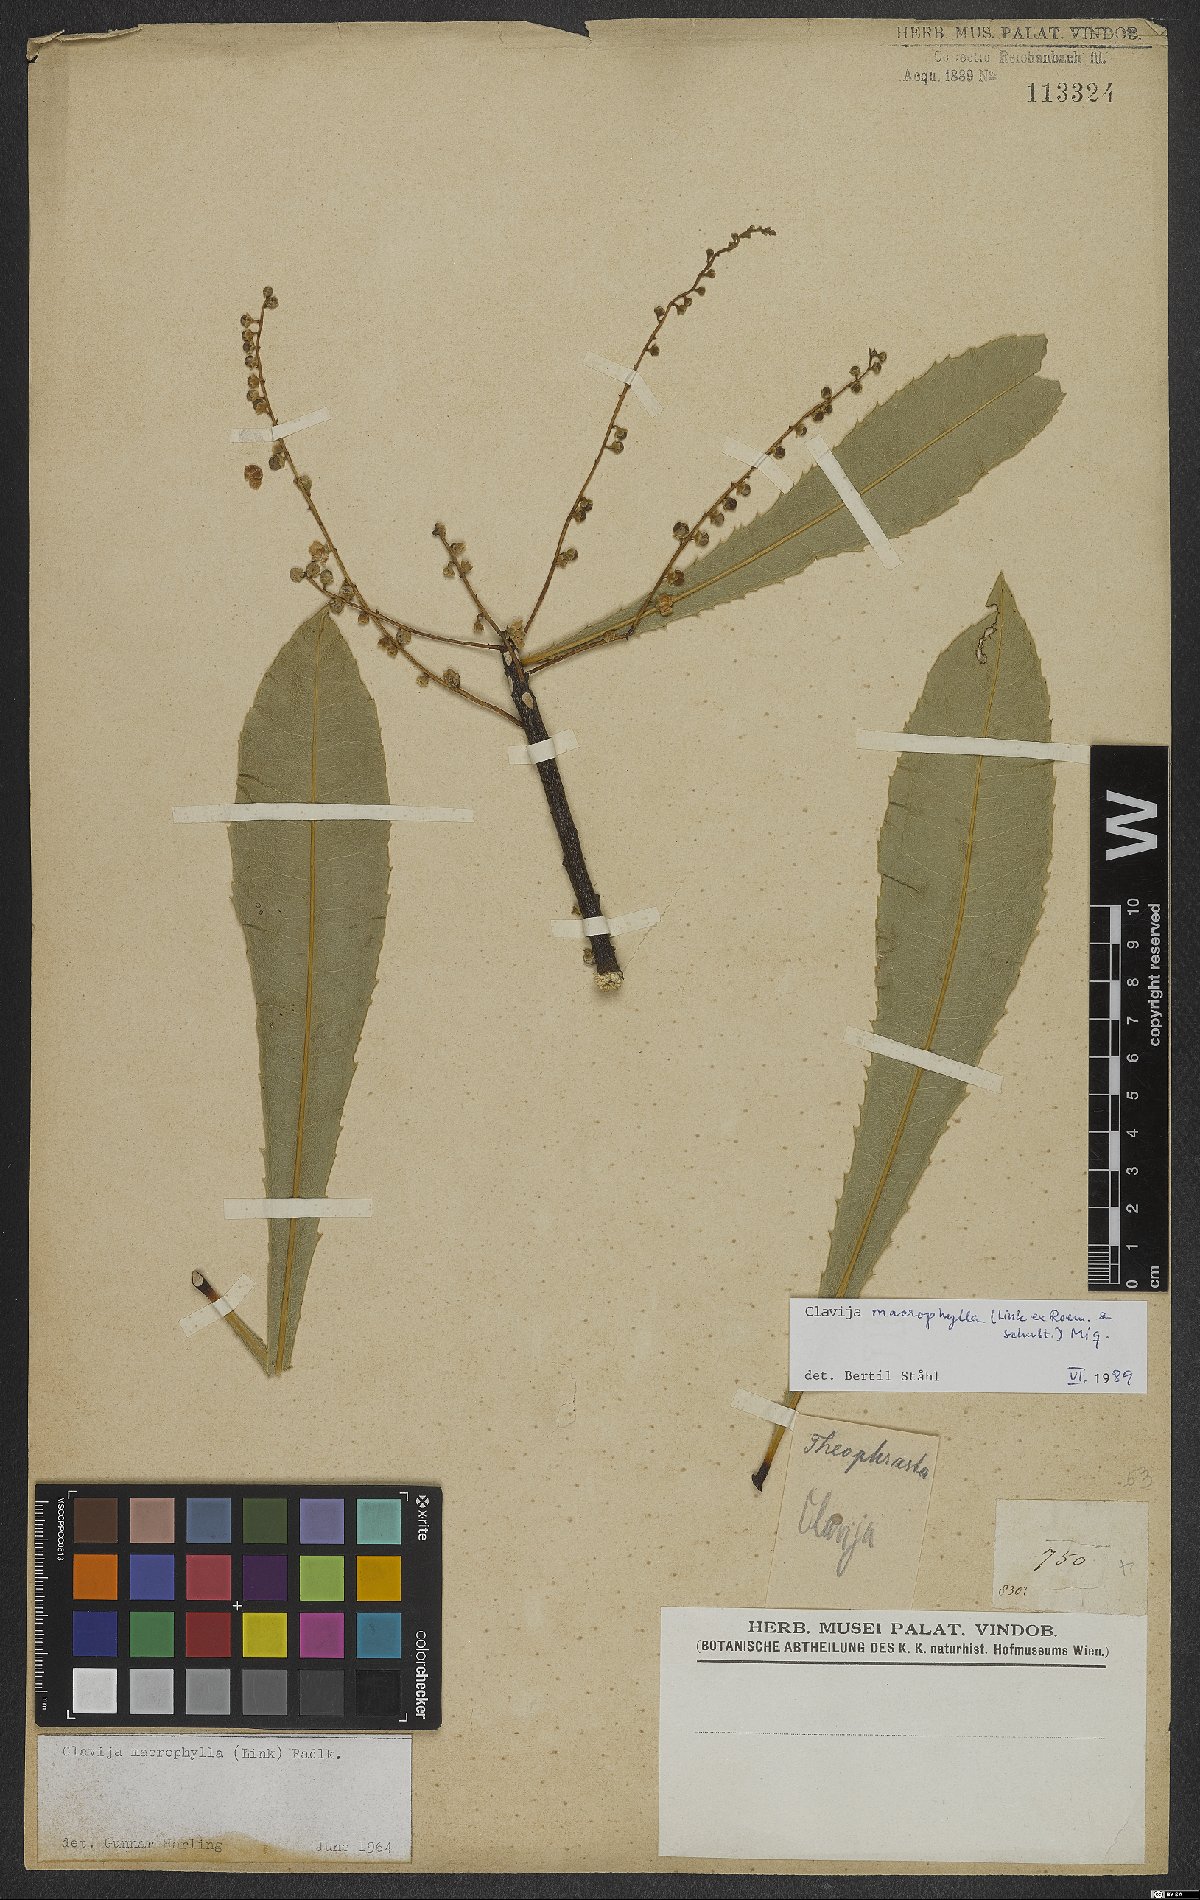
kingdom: Plantae
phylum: Tracheophyta
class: Magnoliopsida
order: Ericales
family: Primulaceae
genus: Clavija
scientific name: Clavija macrophylla
